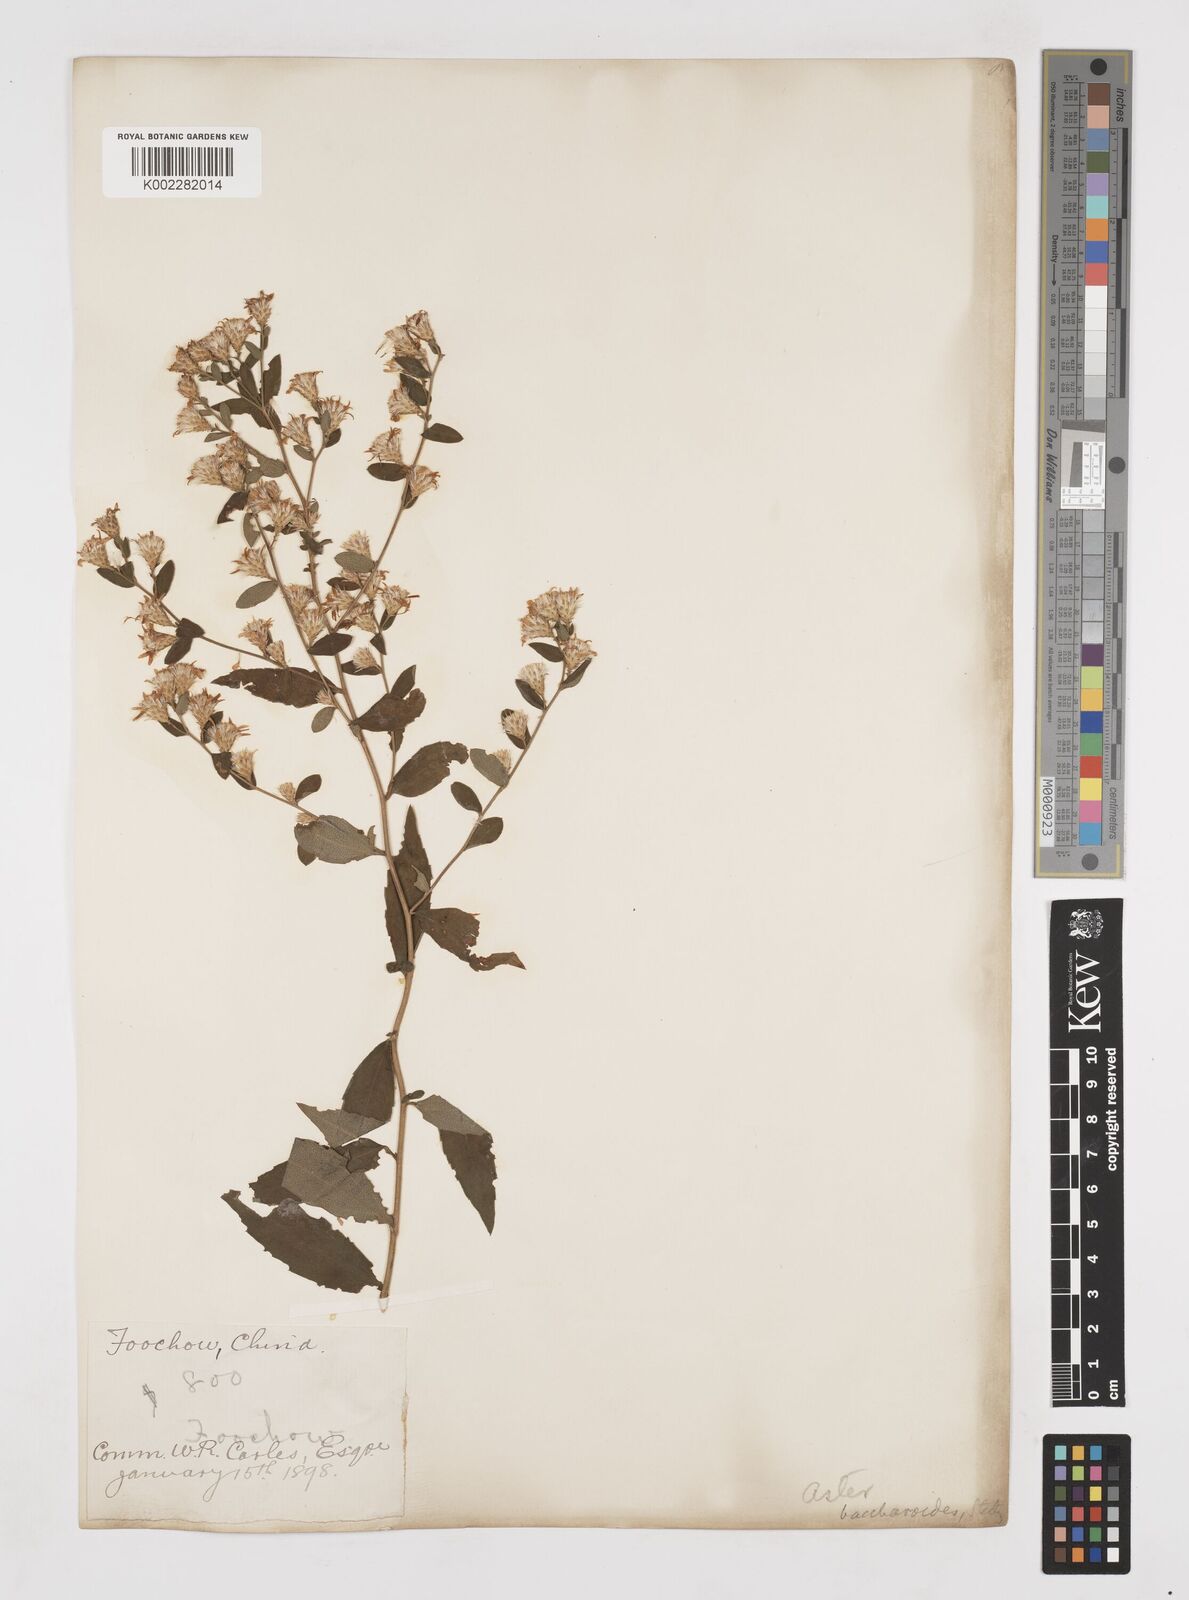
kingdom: Plantae
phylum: Tracheophyta
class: Magnoliopsida
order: Asterales
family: Asteraceae
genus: Aster
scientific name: Aster baccharoides
